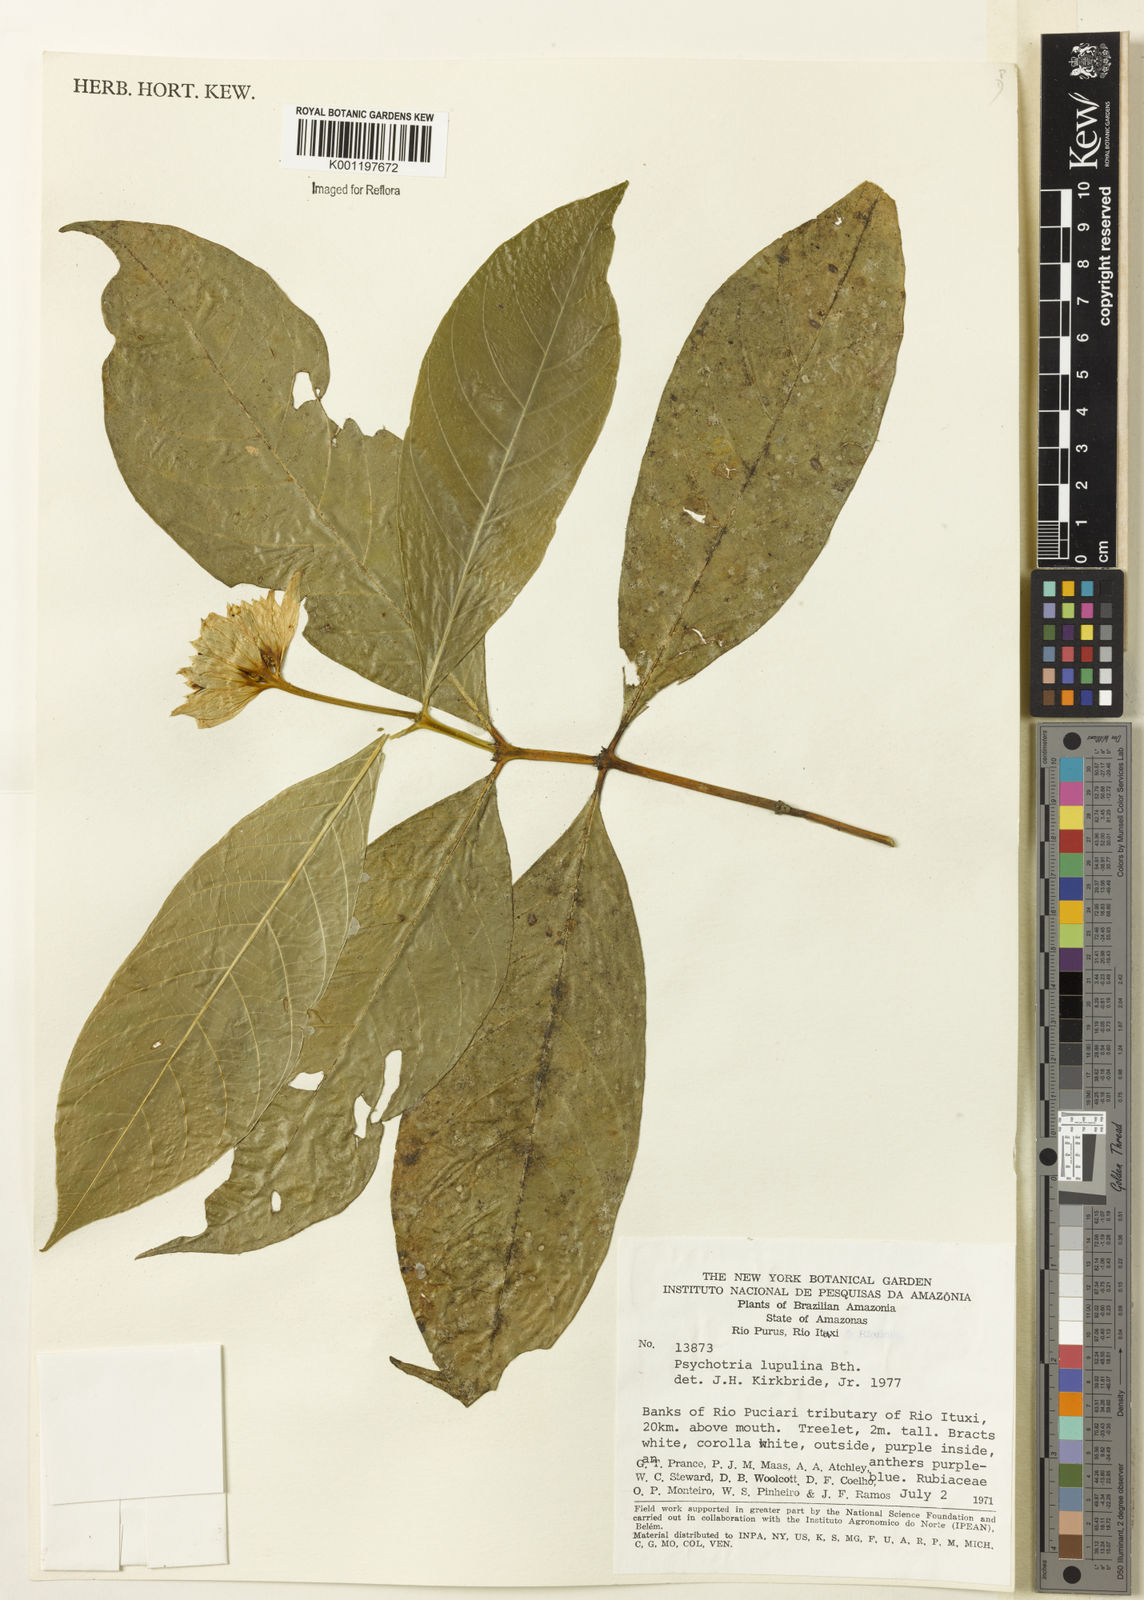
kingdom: Plantae
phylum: Tracheophyta
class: Magnoliopsida
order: Gentianales
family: Rubiaceae
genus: Palicourea
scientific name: Palicourea justiciifolia
